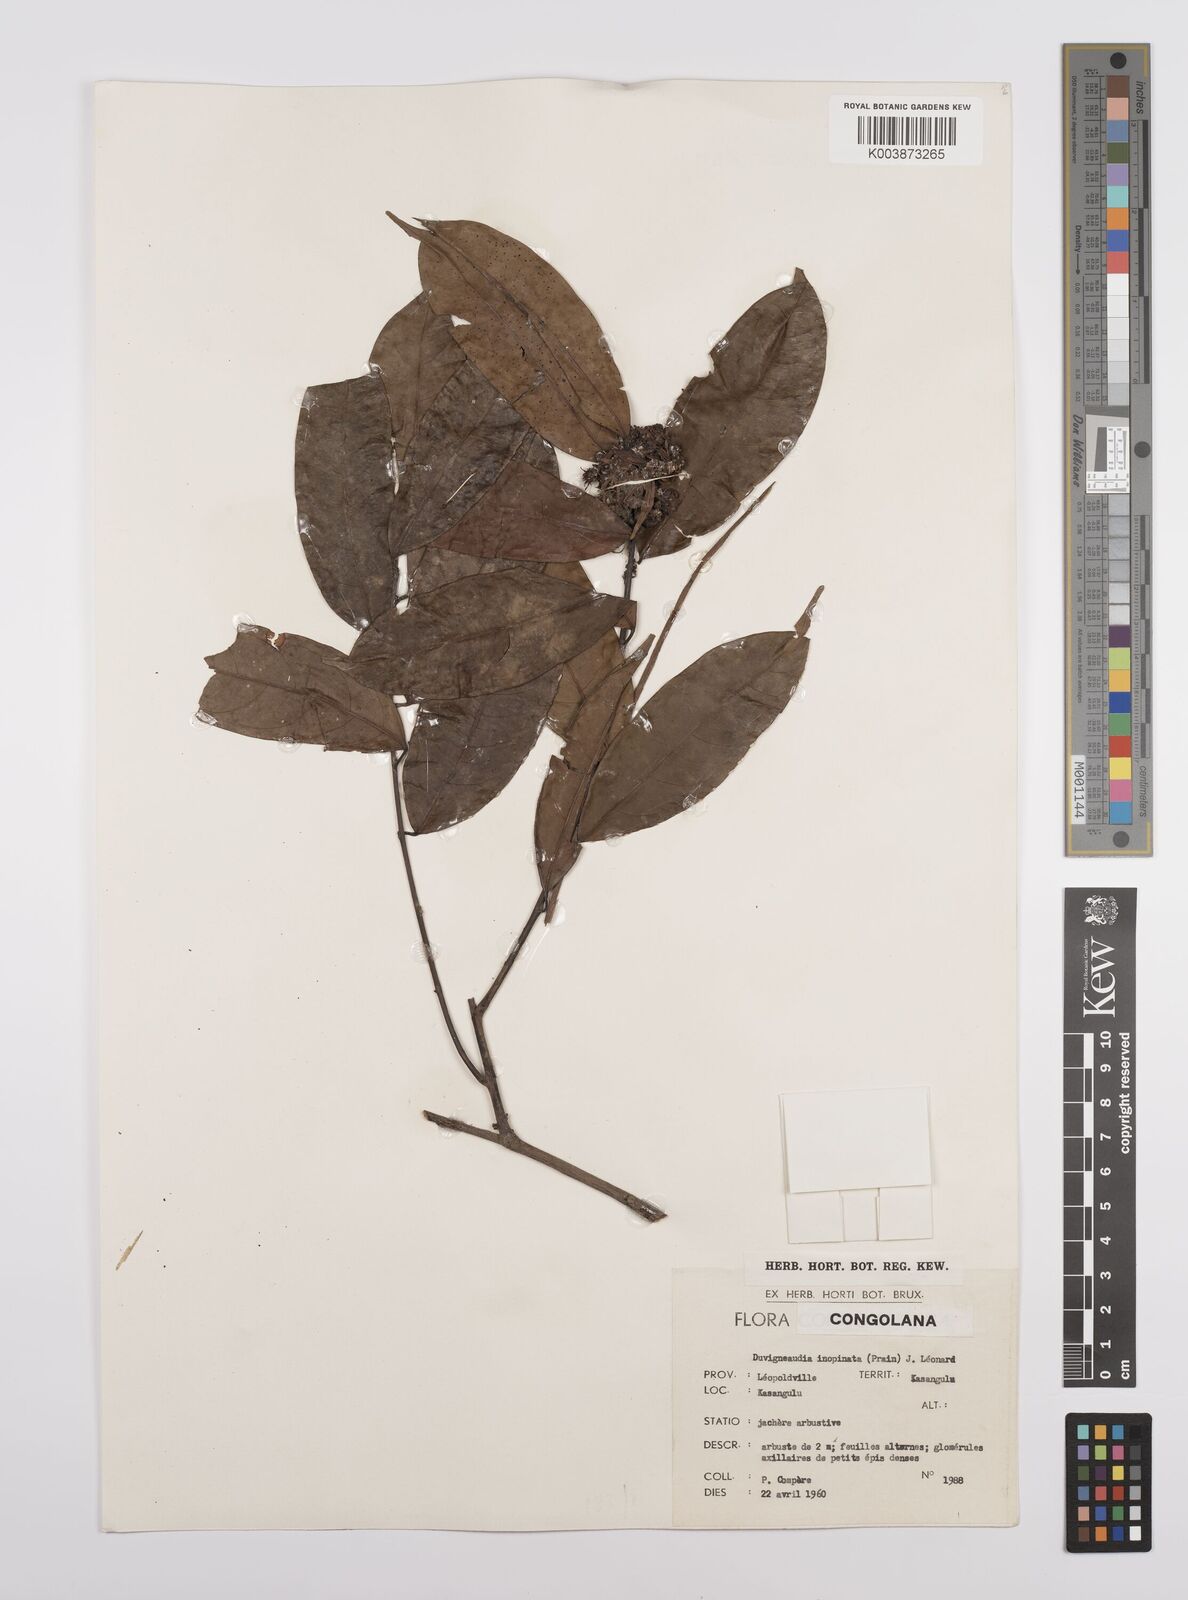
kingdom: Plantae
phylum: Tracheophyta
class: Magnoliopsida
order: Malpighiales
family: Euphorbiaceae
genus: Gymnanthes
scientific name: Gymnanthes
